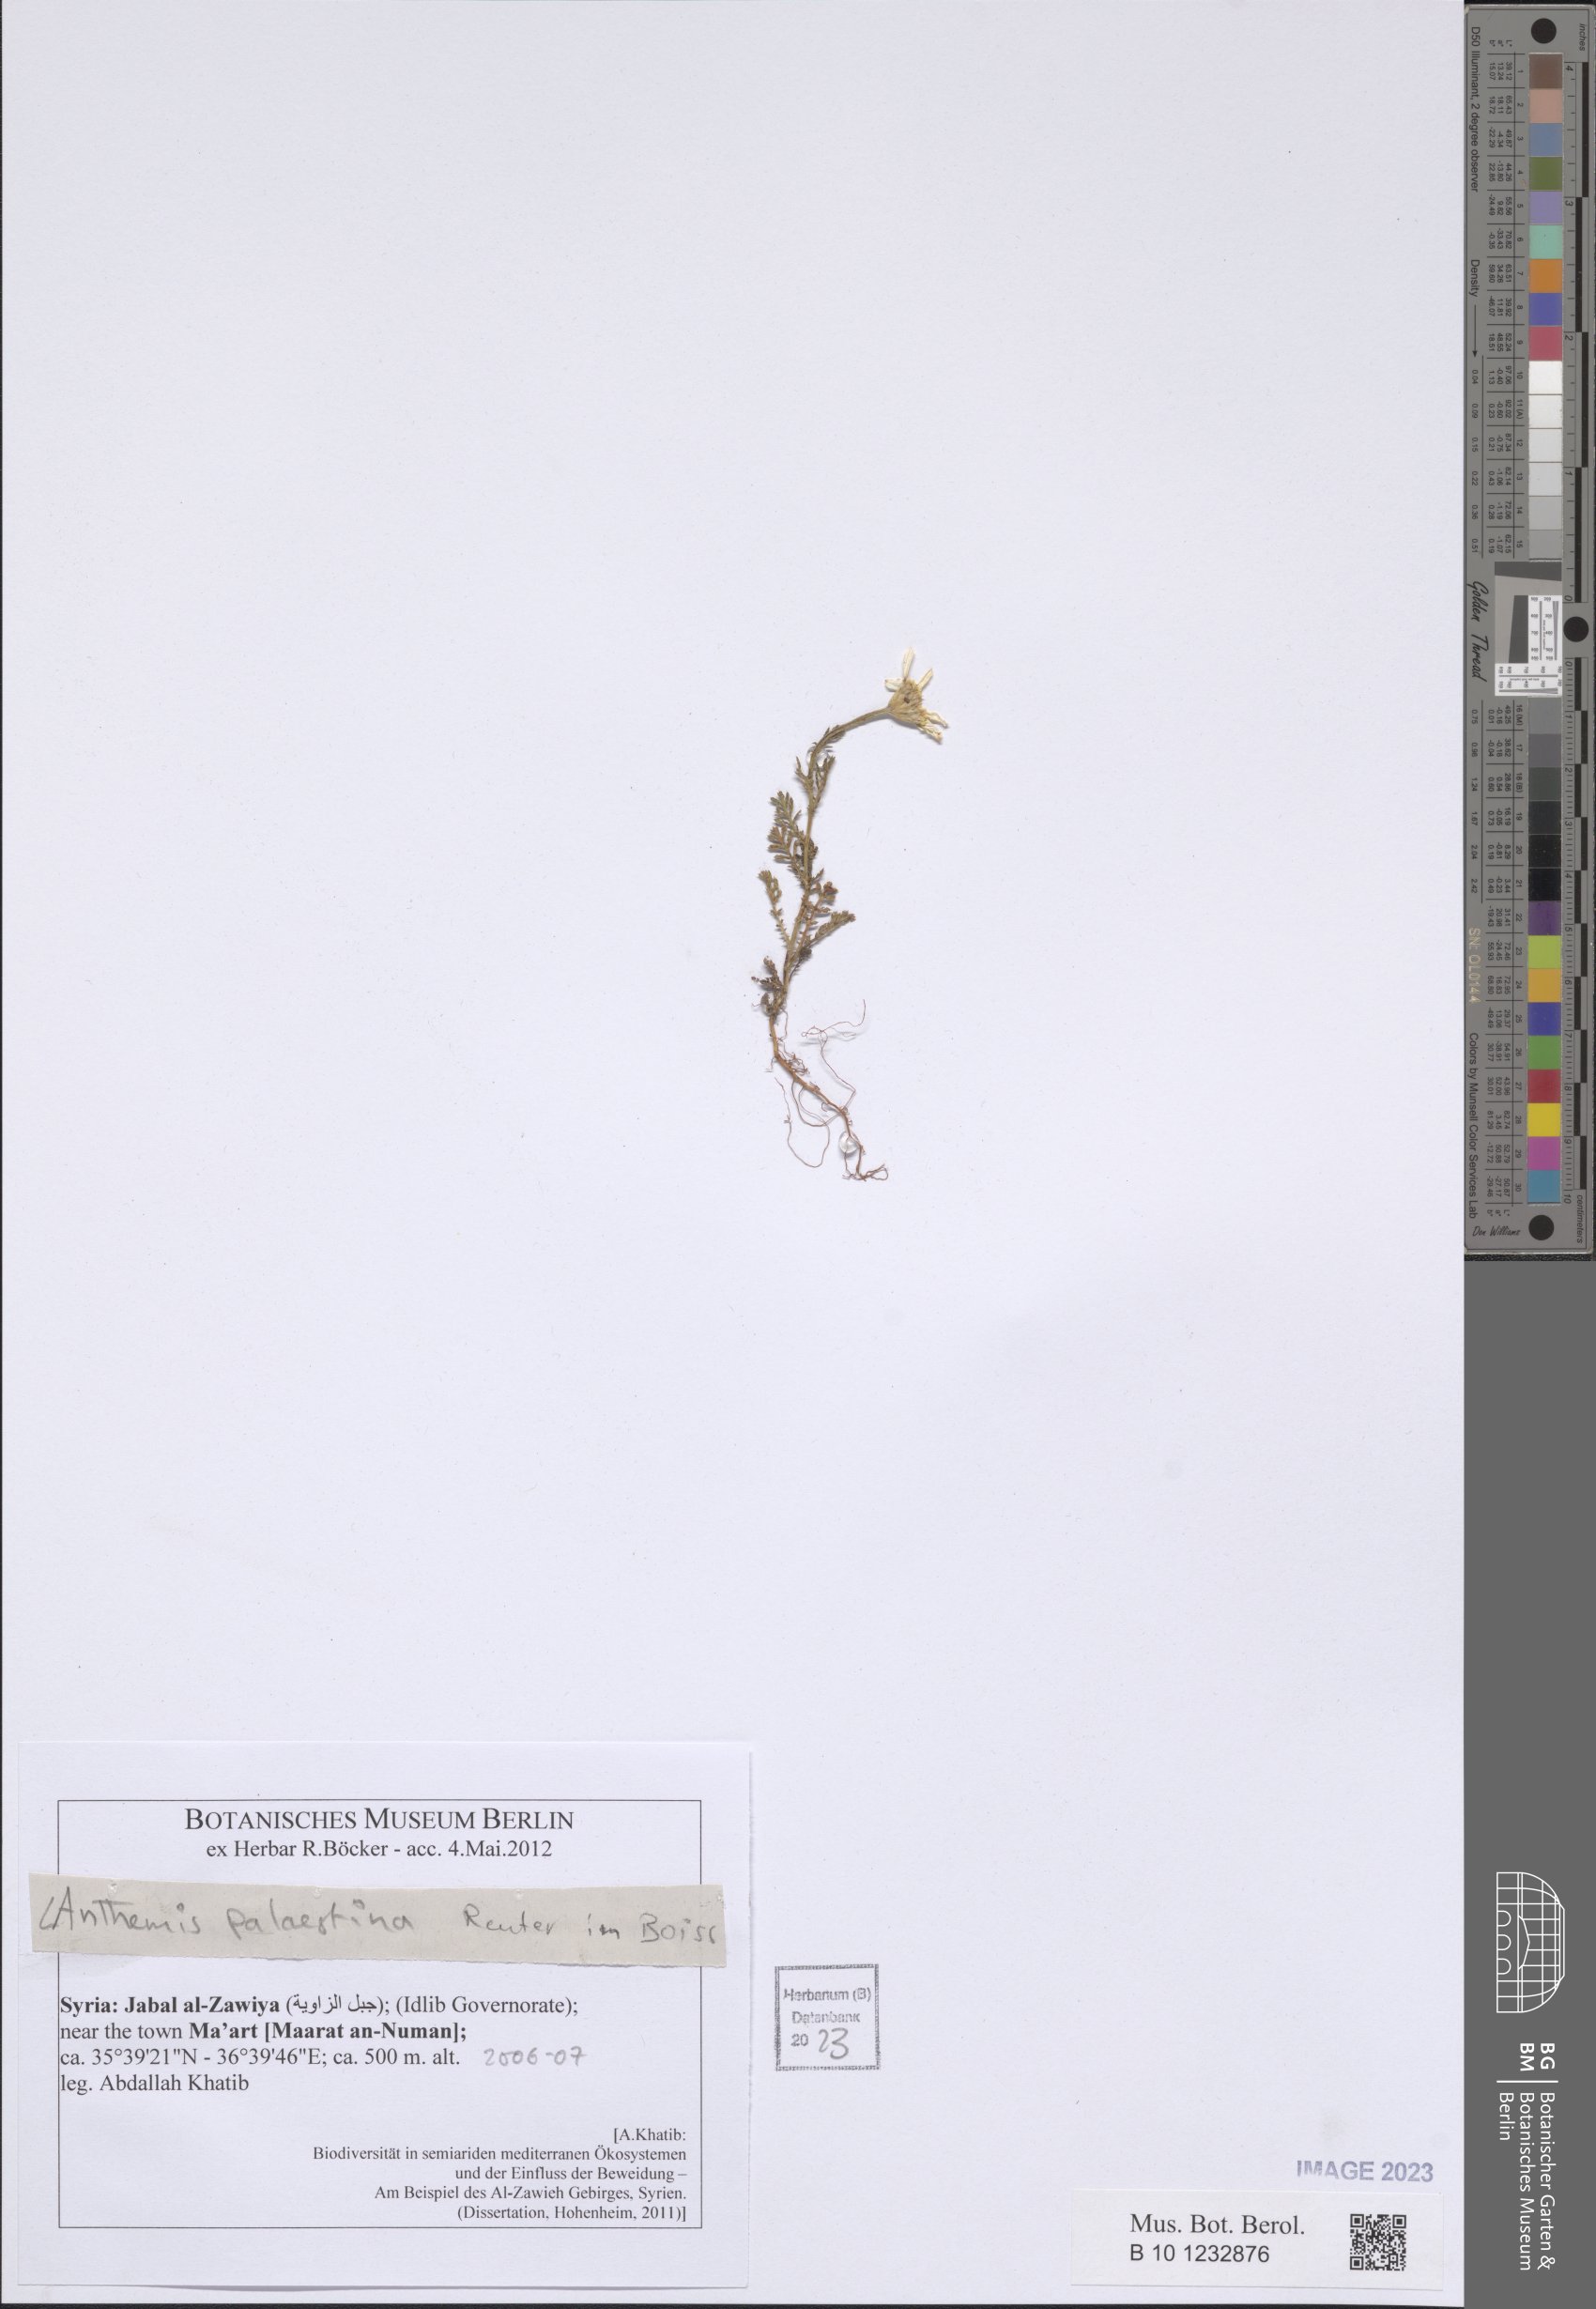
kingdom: Plantae
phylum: Tracheophyta
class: Magnoliopsida
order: Asterales
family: Asteraceae
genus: Cota
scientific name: Cota palaestina
